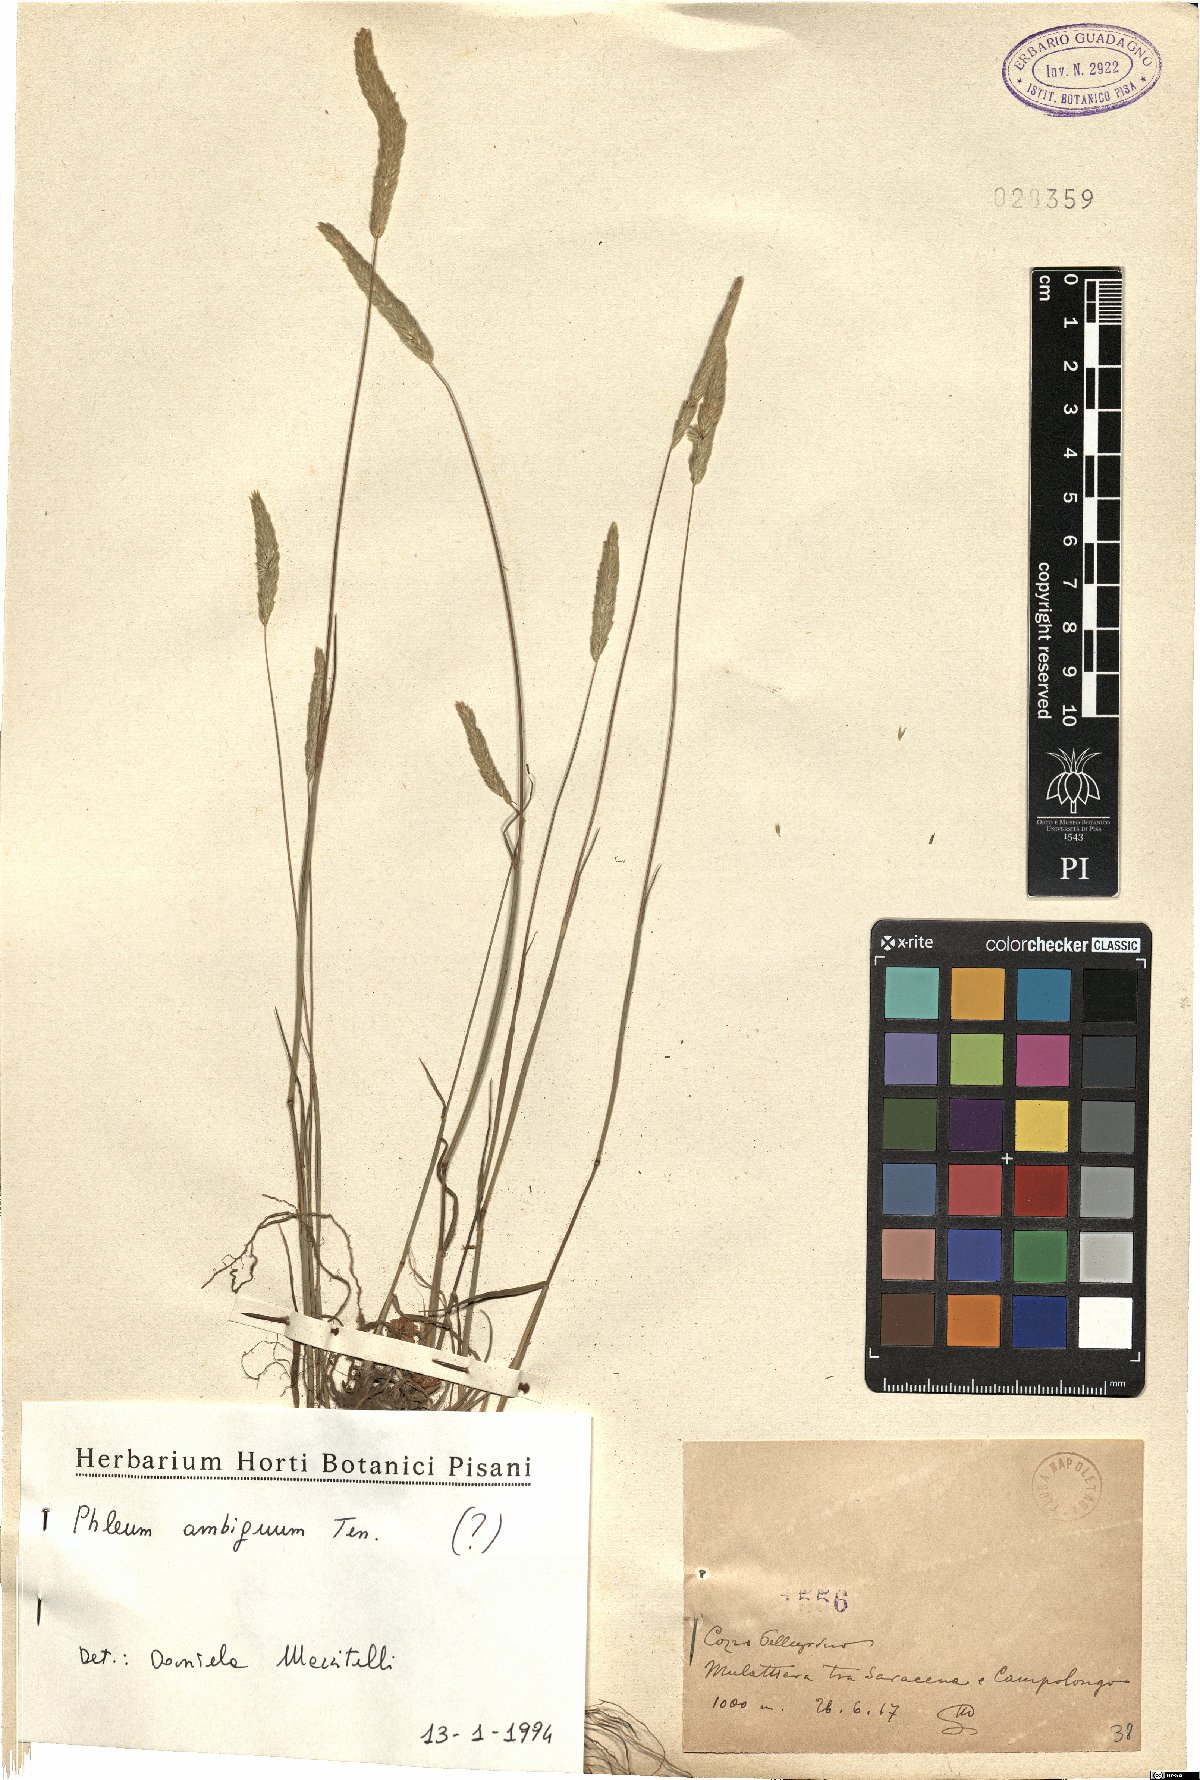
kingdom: Plantae
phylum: Tracheophyta
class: Liliopsida
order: Poales
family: Poaceae
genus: Phleum
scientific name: Phleum hirsutum
